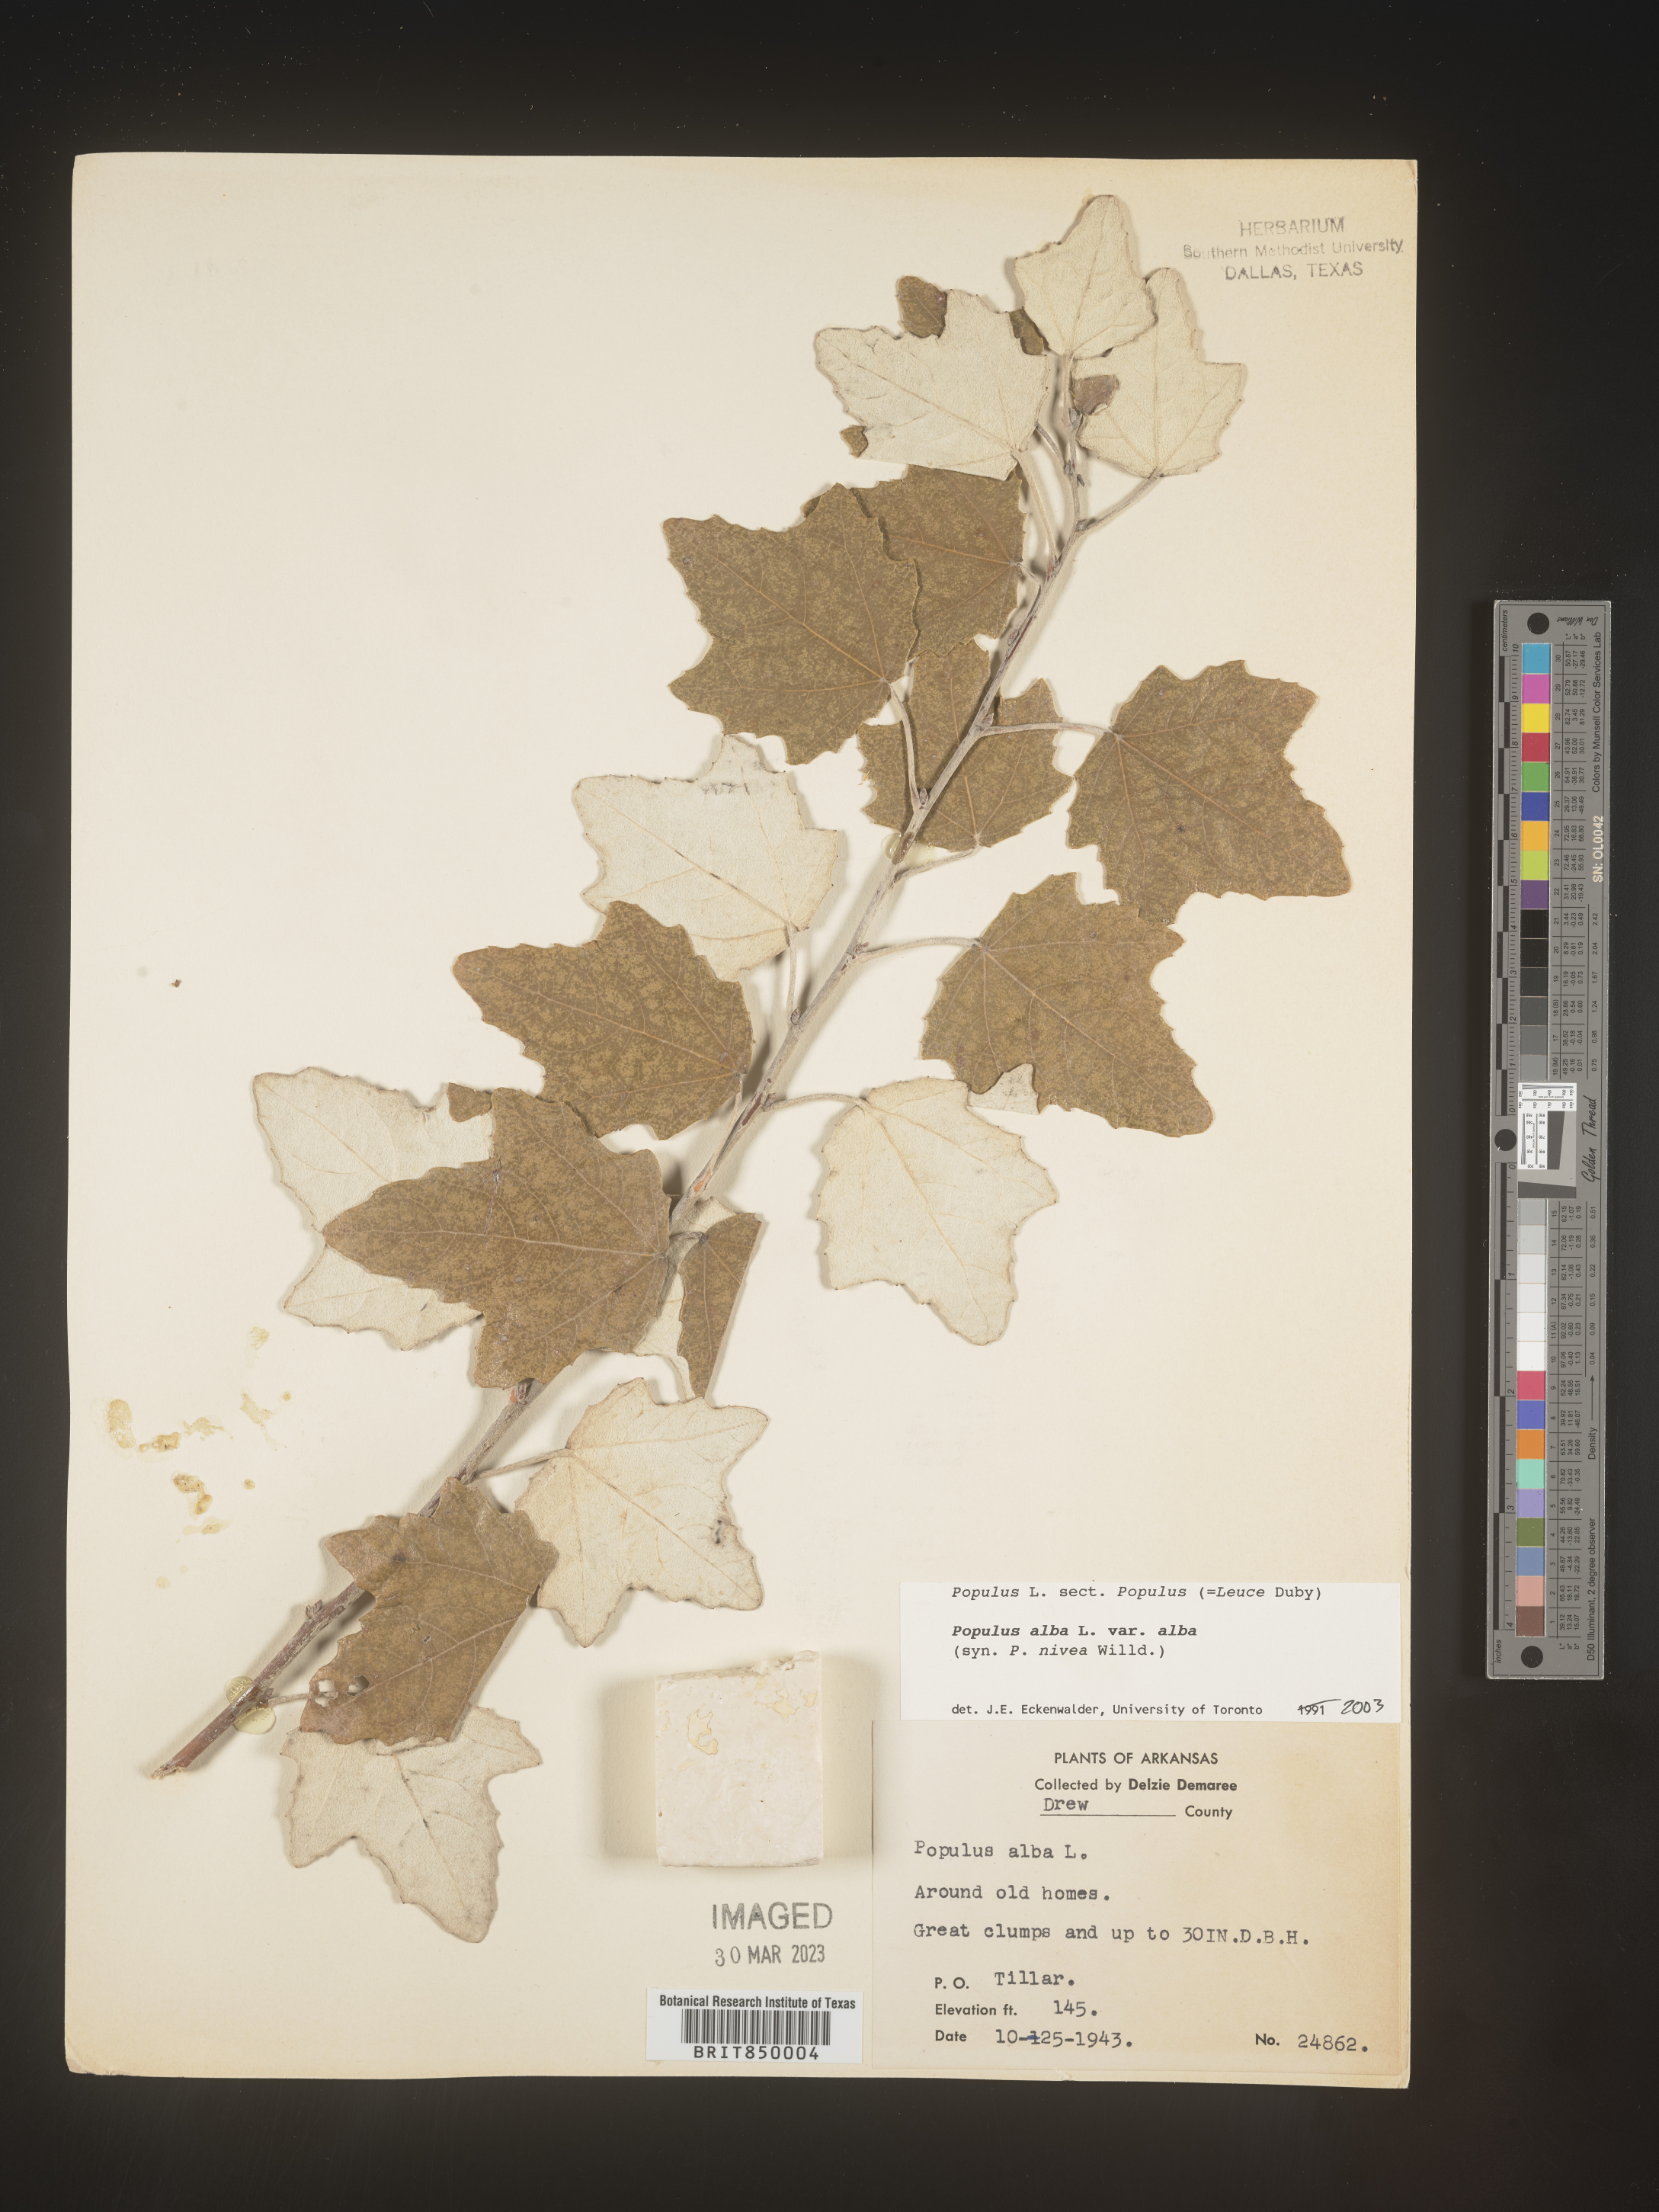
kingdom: Plantae
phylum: Tracheophyta
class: Magnoliopsida
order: Malpighiales
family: Salicaceae
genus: Populus
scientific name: Populus alba
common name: White poplar
